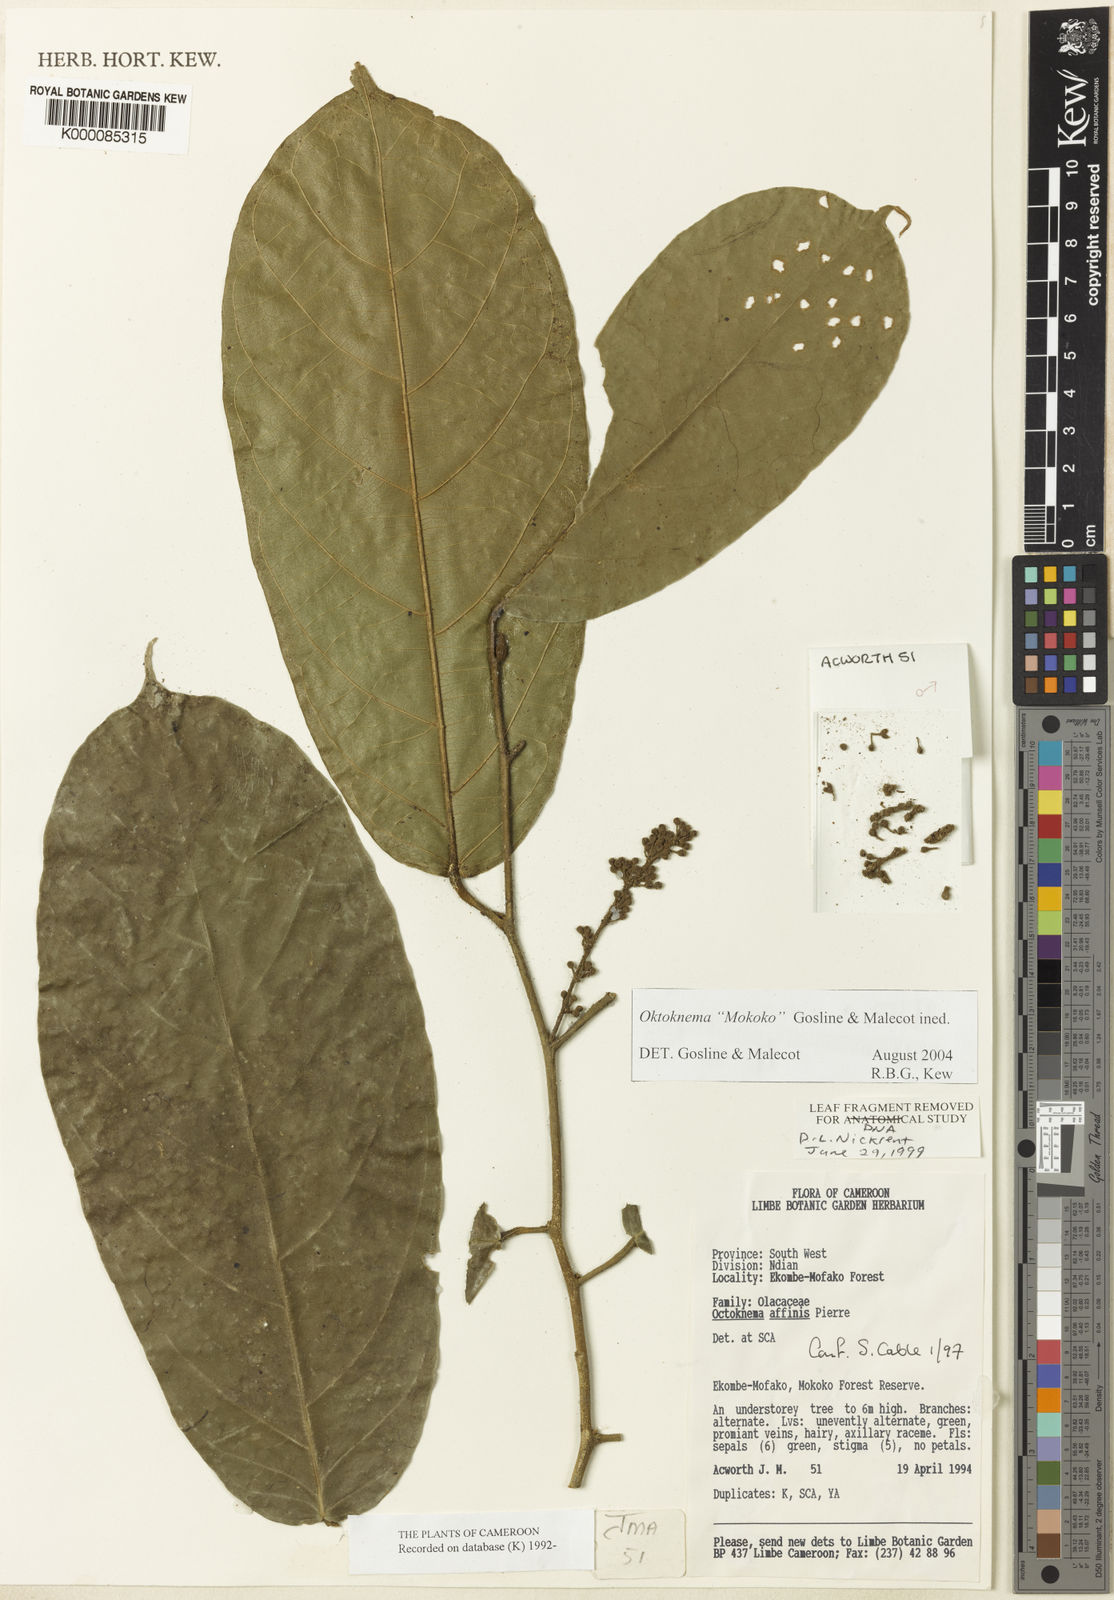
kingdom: Plantae
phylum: Tracheophyta
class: Magnoliopsida
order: Santalales
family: Octoknemaceae
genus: Octoknema
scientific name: Octoknema
